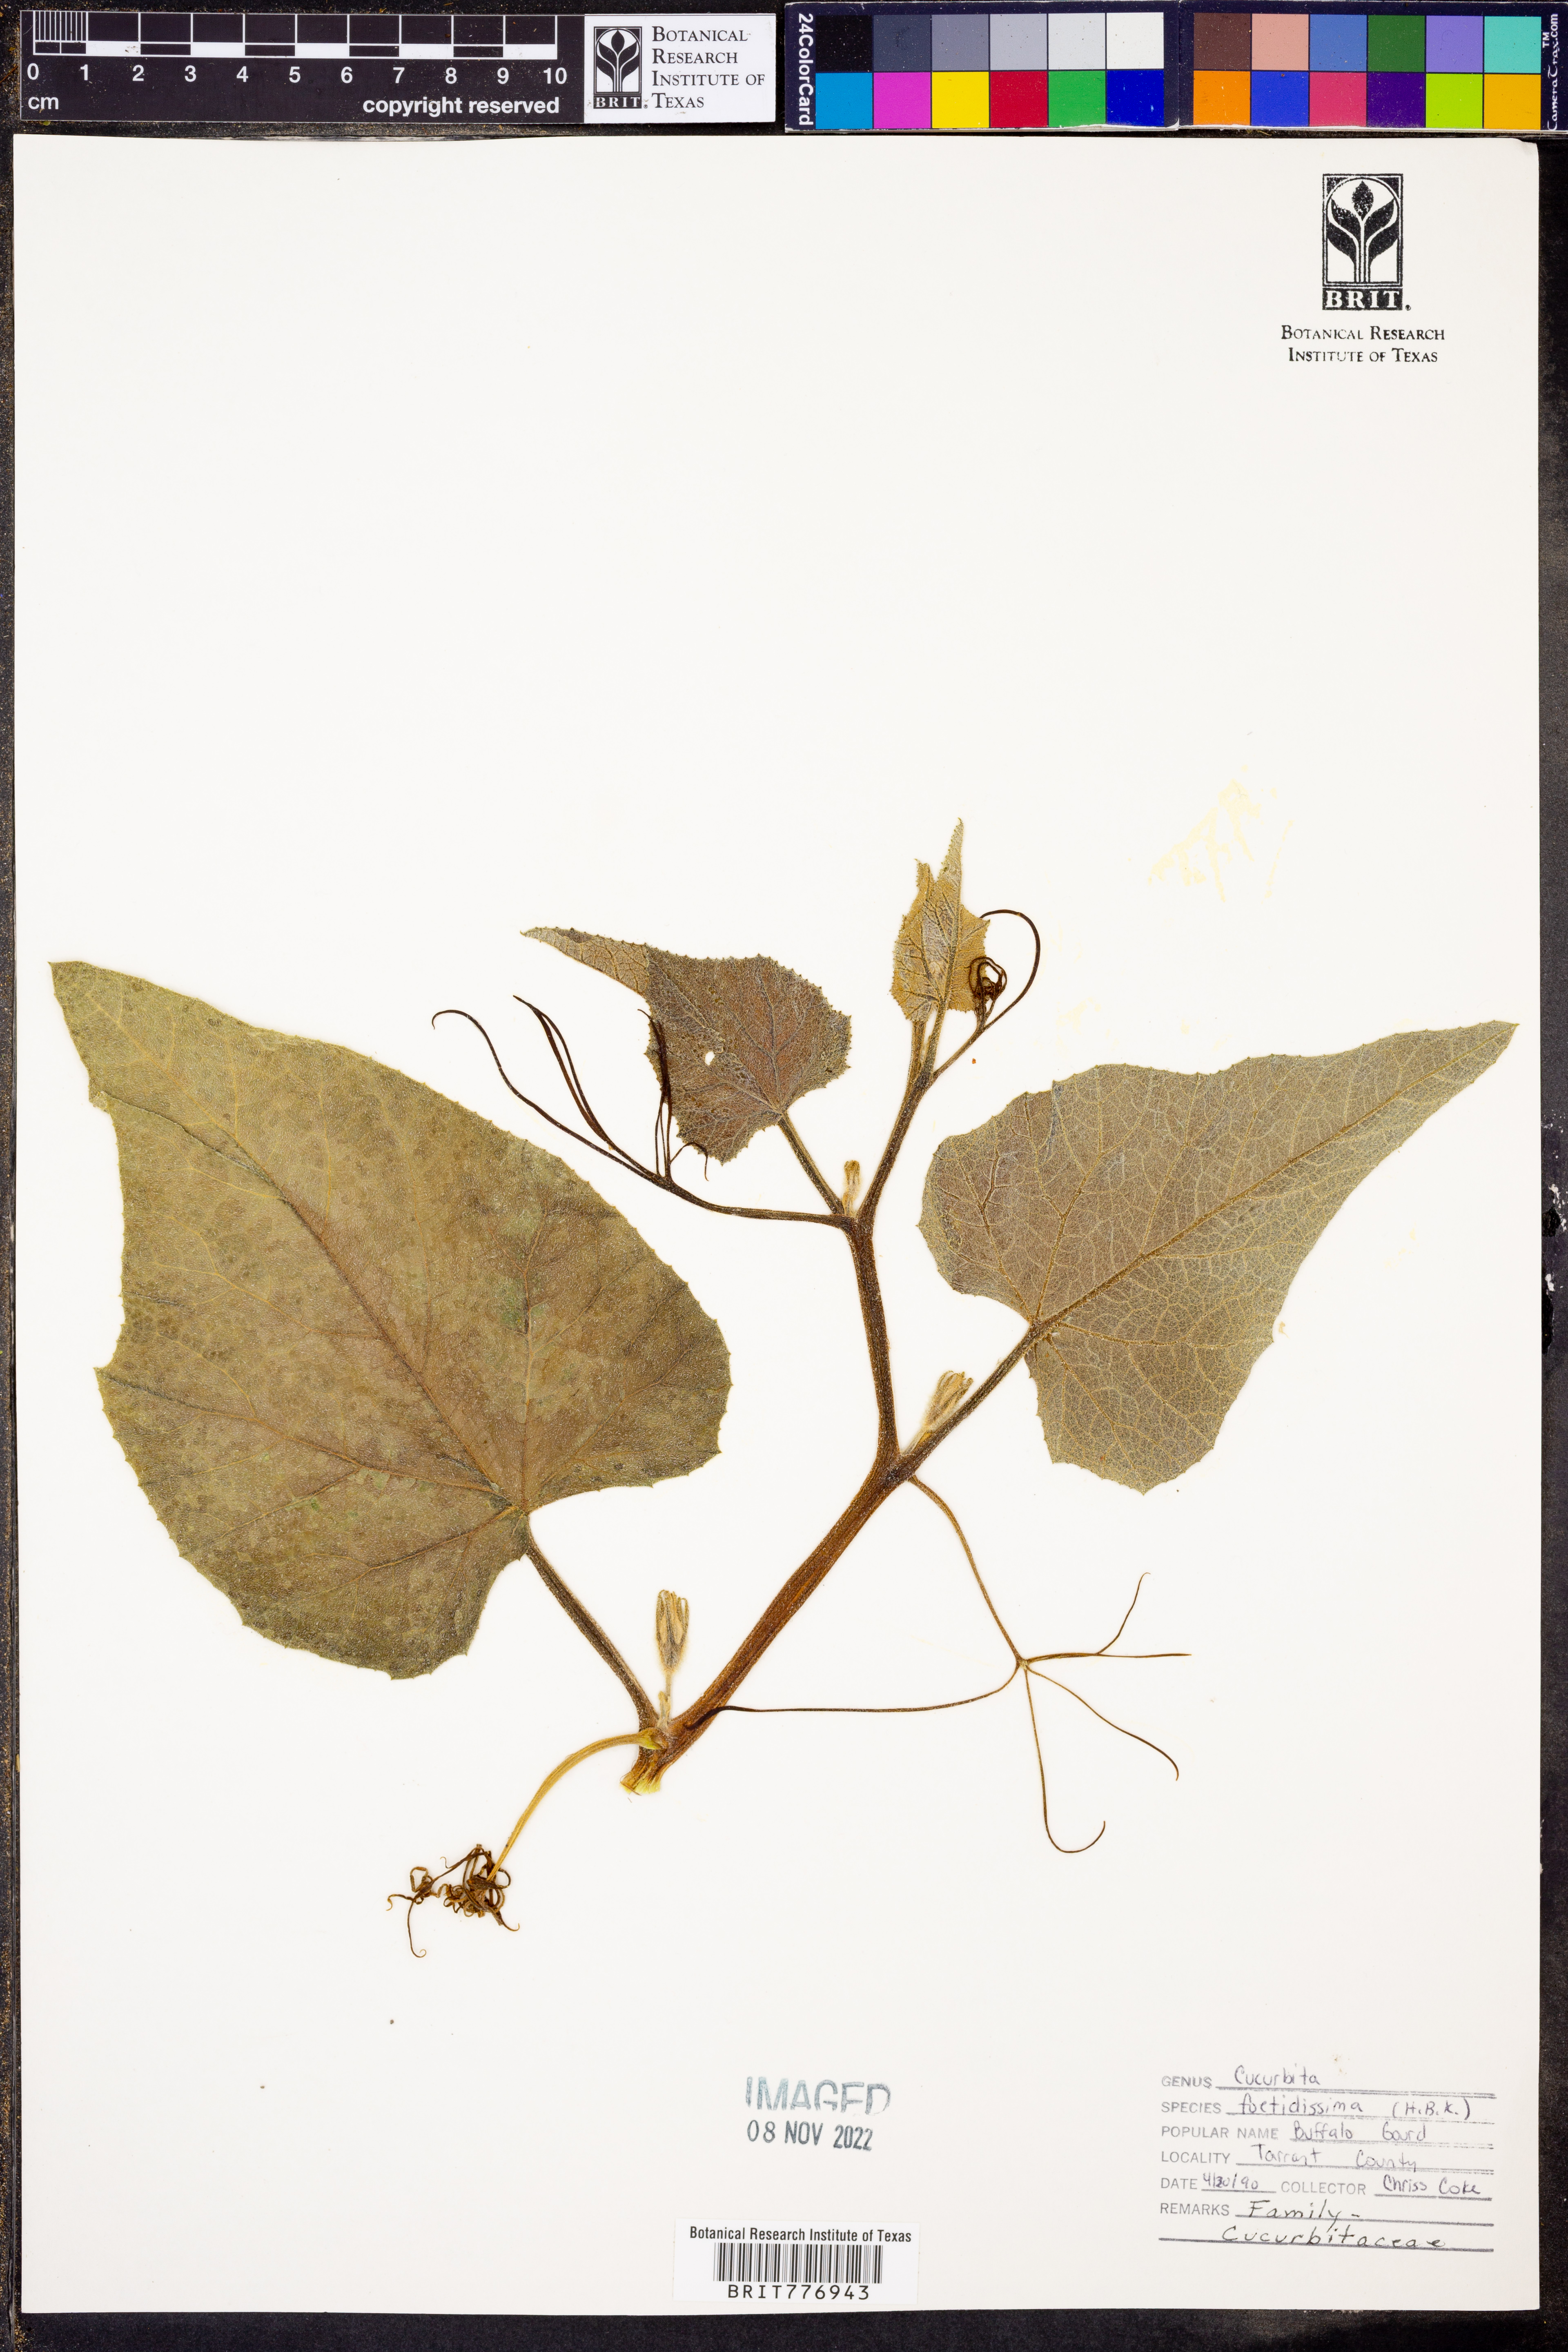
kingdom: Plantae
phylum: Tracheophyta
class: Magnoliopsida
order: Cucurbitales
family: Cucurbitaceae
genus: Cucurbita
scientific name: Cucurbita foetidissima
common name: Buffalo gourd
